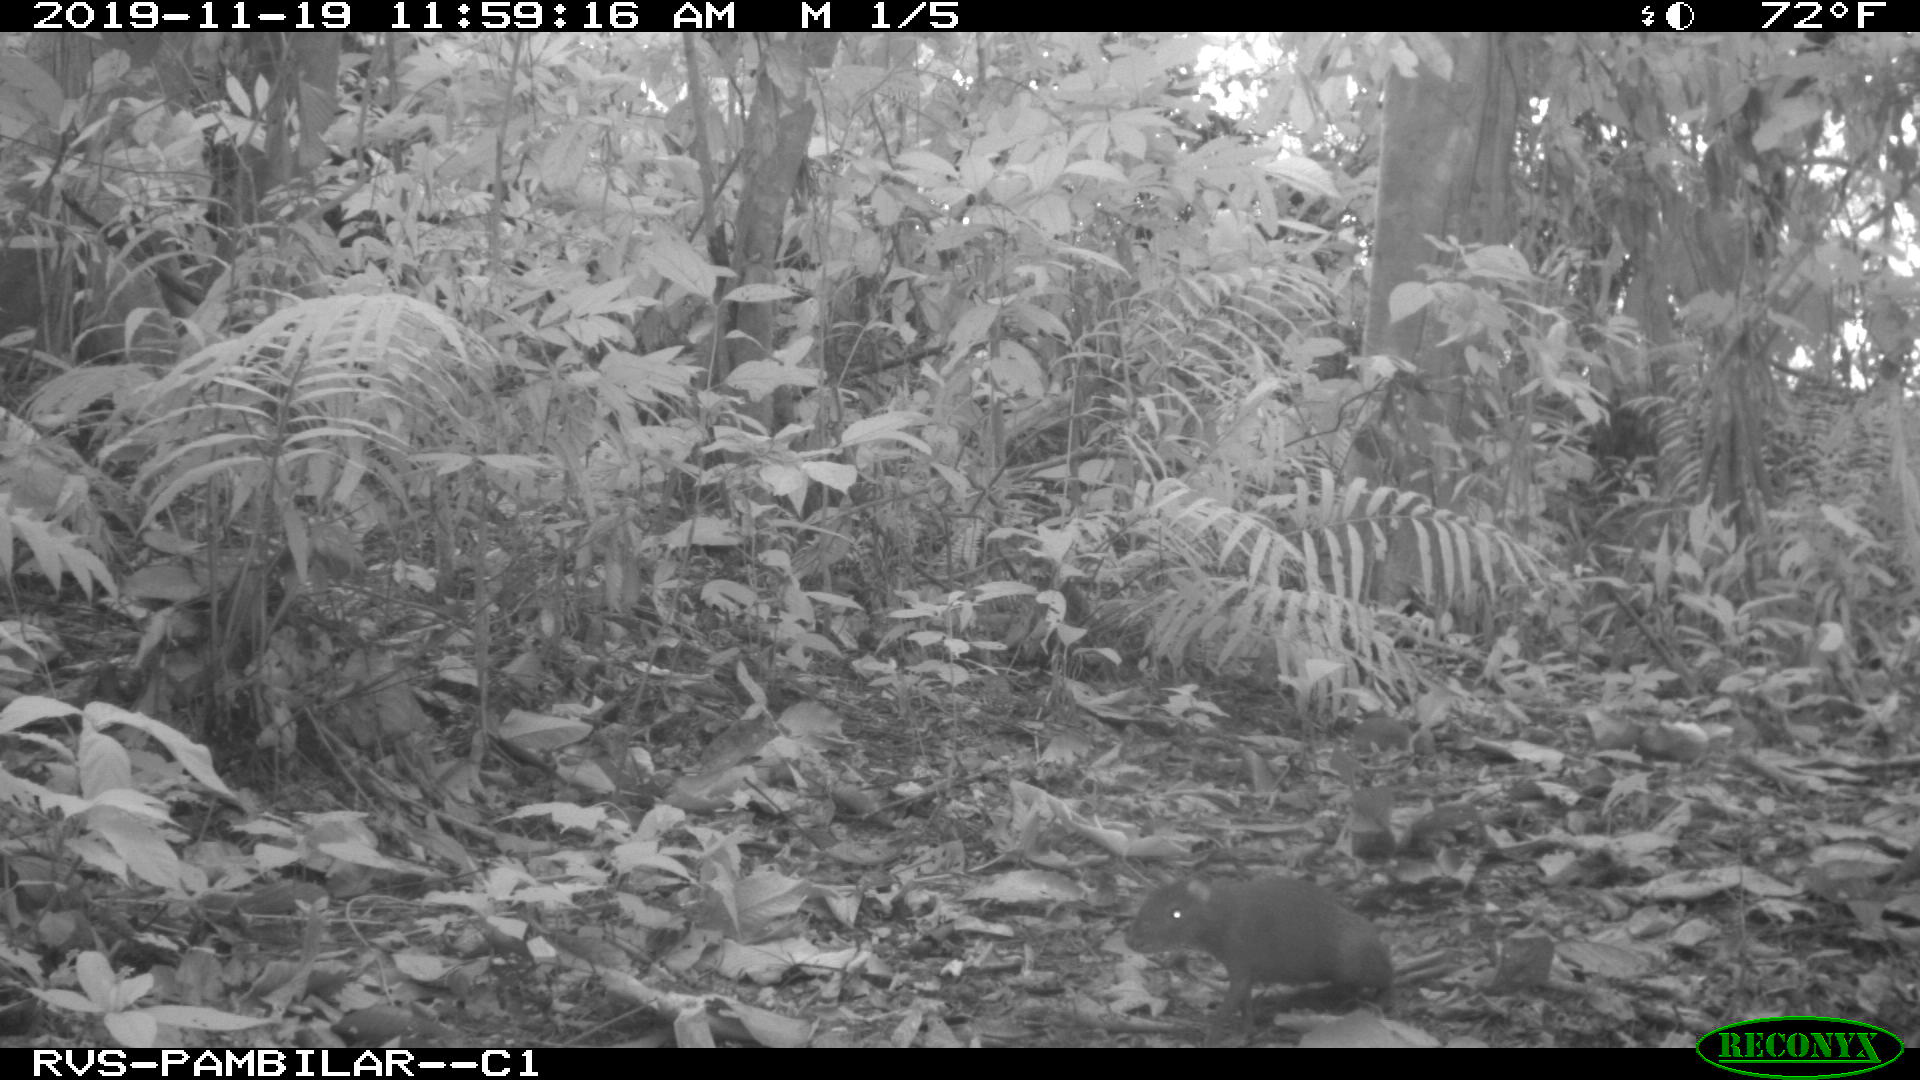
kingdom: Animalia
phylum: Chordata
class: Mammalia
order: Rodentia
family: Dasyproctidae
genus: Dasyprocta
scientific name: Dasyprocta punctata
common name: Central american agouti
